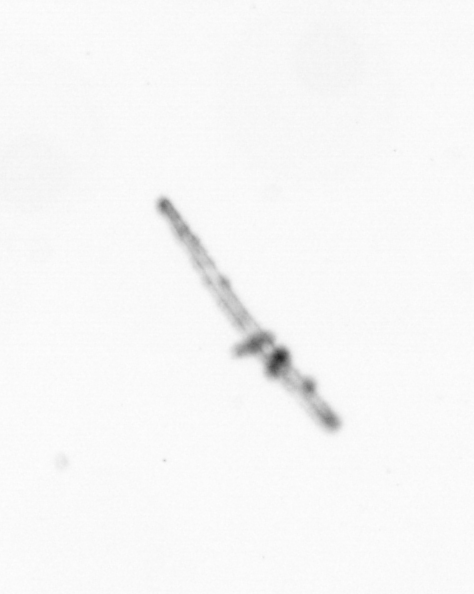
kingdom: Chromista
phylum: Ochrophyta
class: Bacillariophyceae
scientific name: Bacillariophyceae
